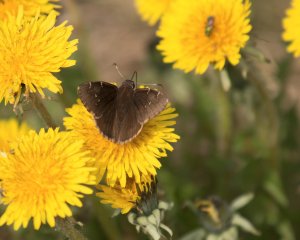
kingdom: Animalia
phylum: Arthropoda
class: Insecta
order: Lepidoptera
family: Hesperiidae
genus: Autochton
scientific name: Autochton
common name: Northern Cloudywing
